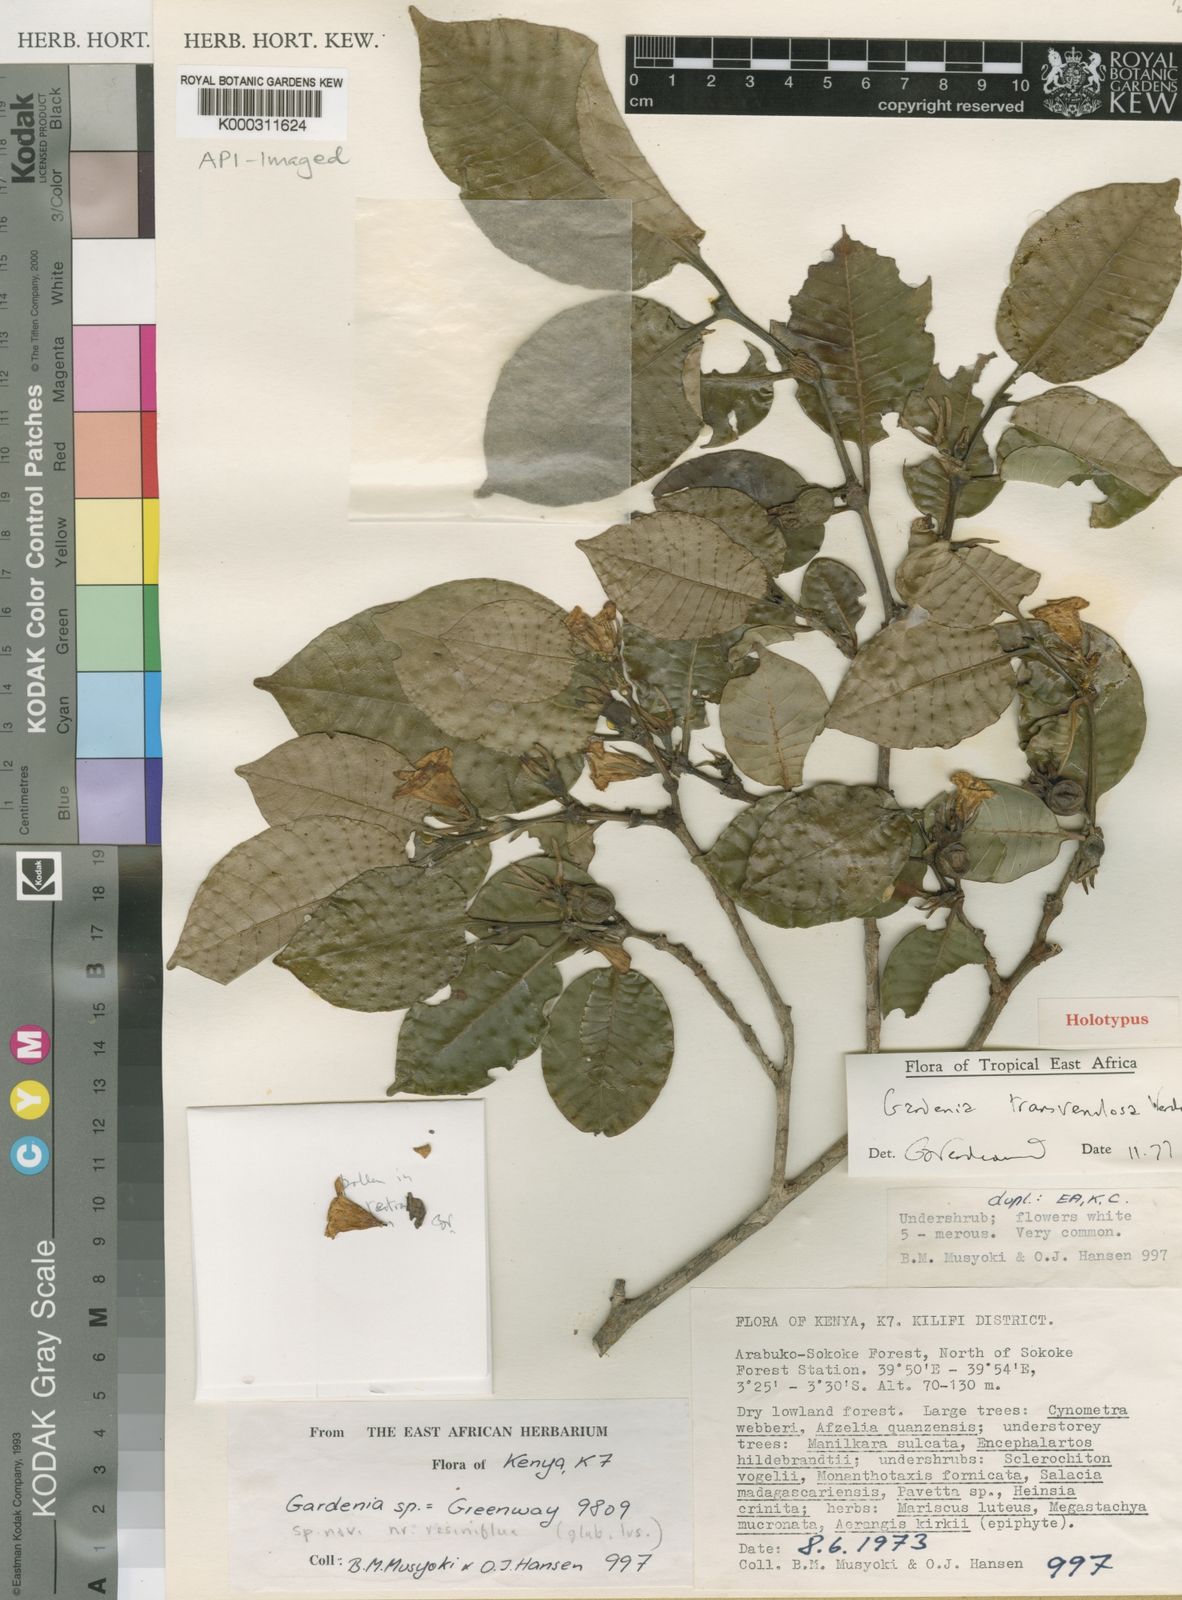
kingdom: Plantae
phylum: Tracheophyta
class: Magnoliopsida
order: Gentianales
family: Rubiaceae
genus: Gardenia
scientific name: Gardenia transvenulosa
